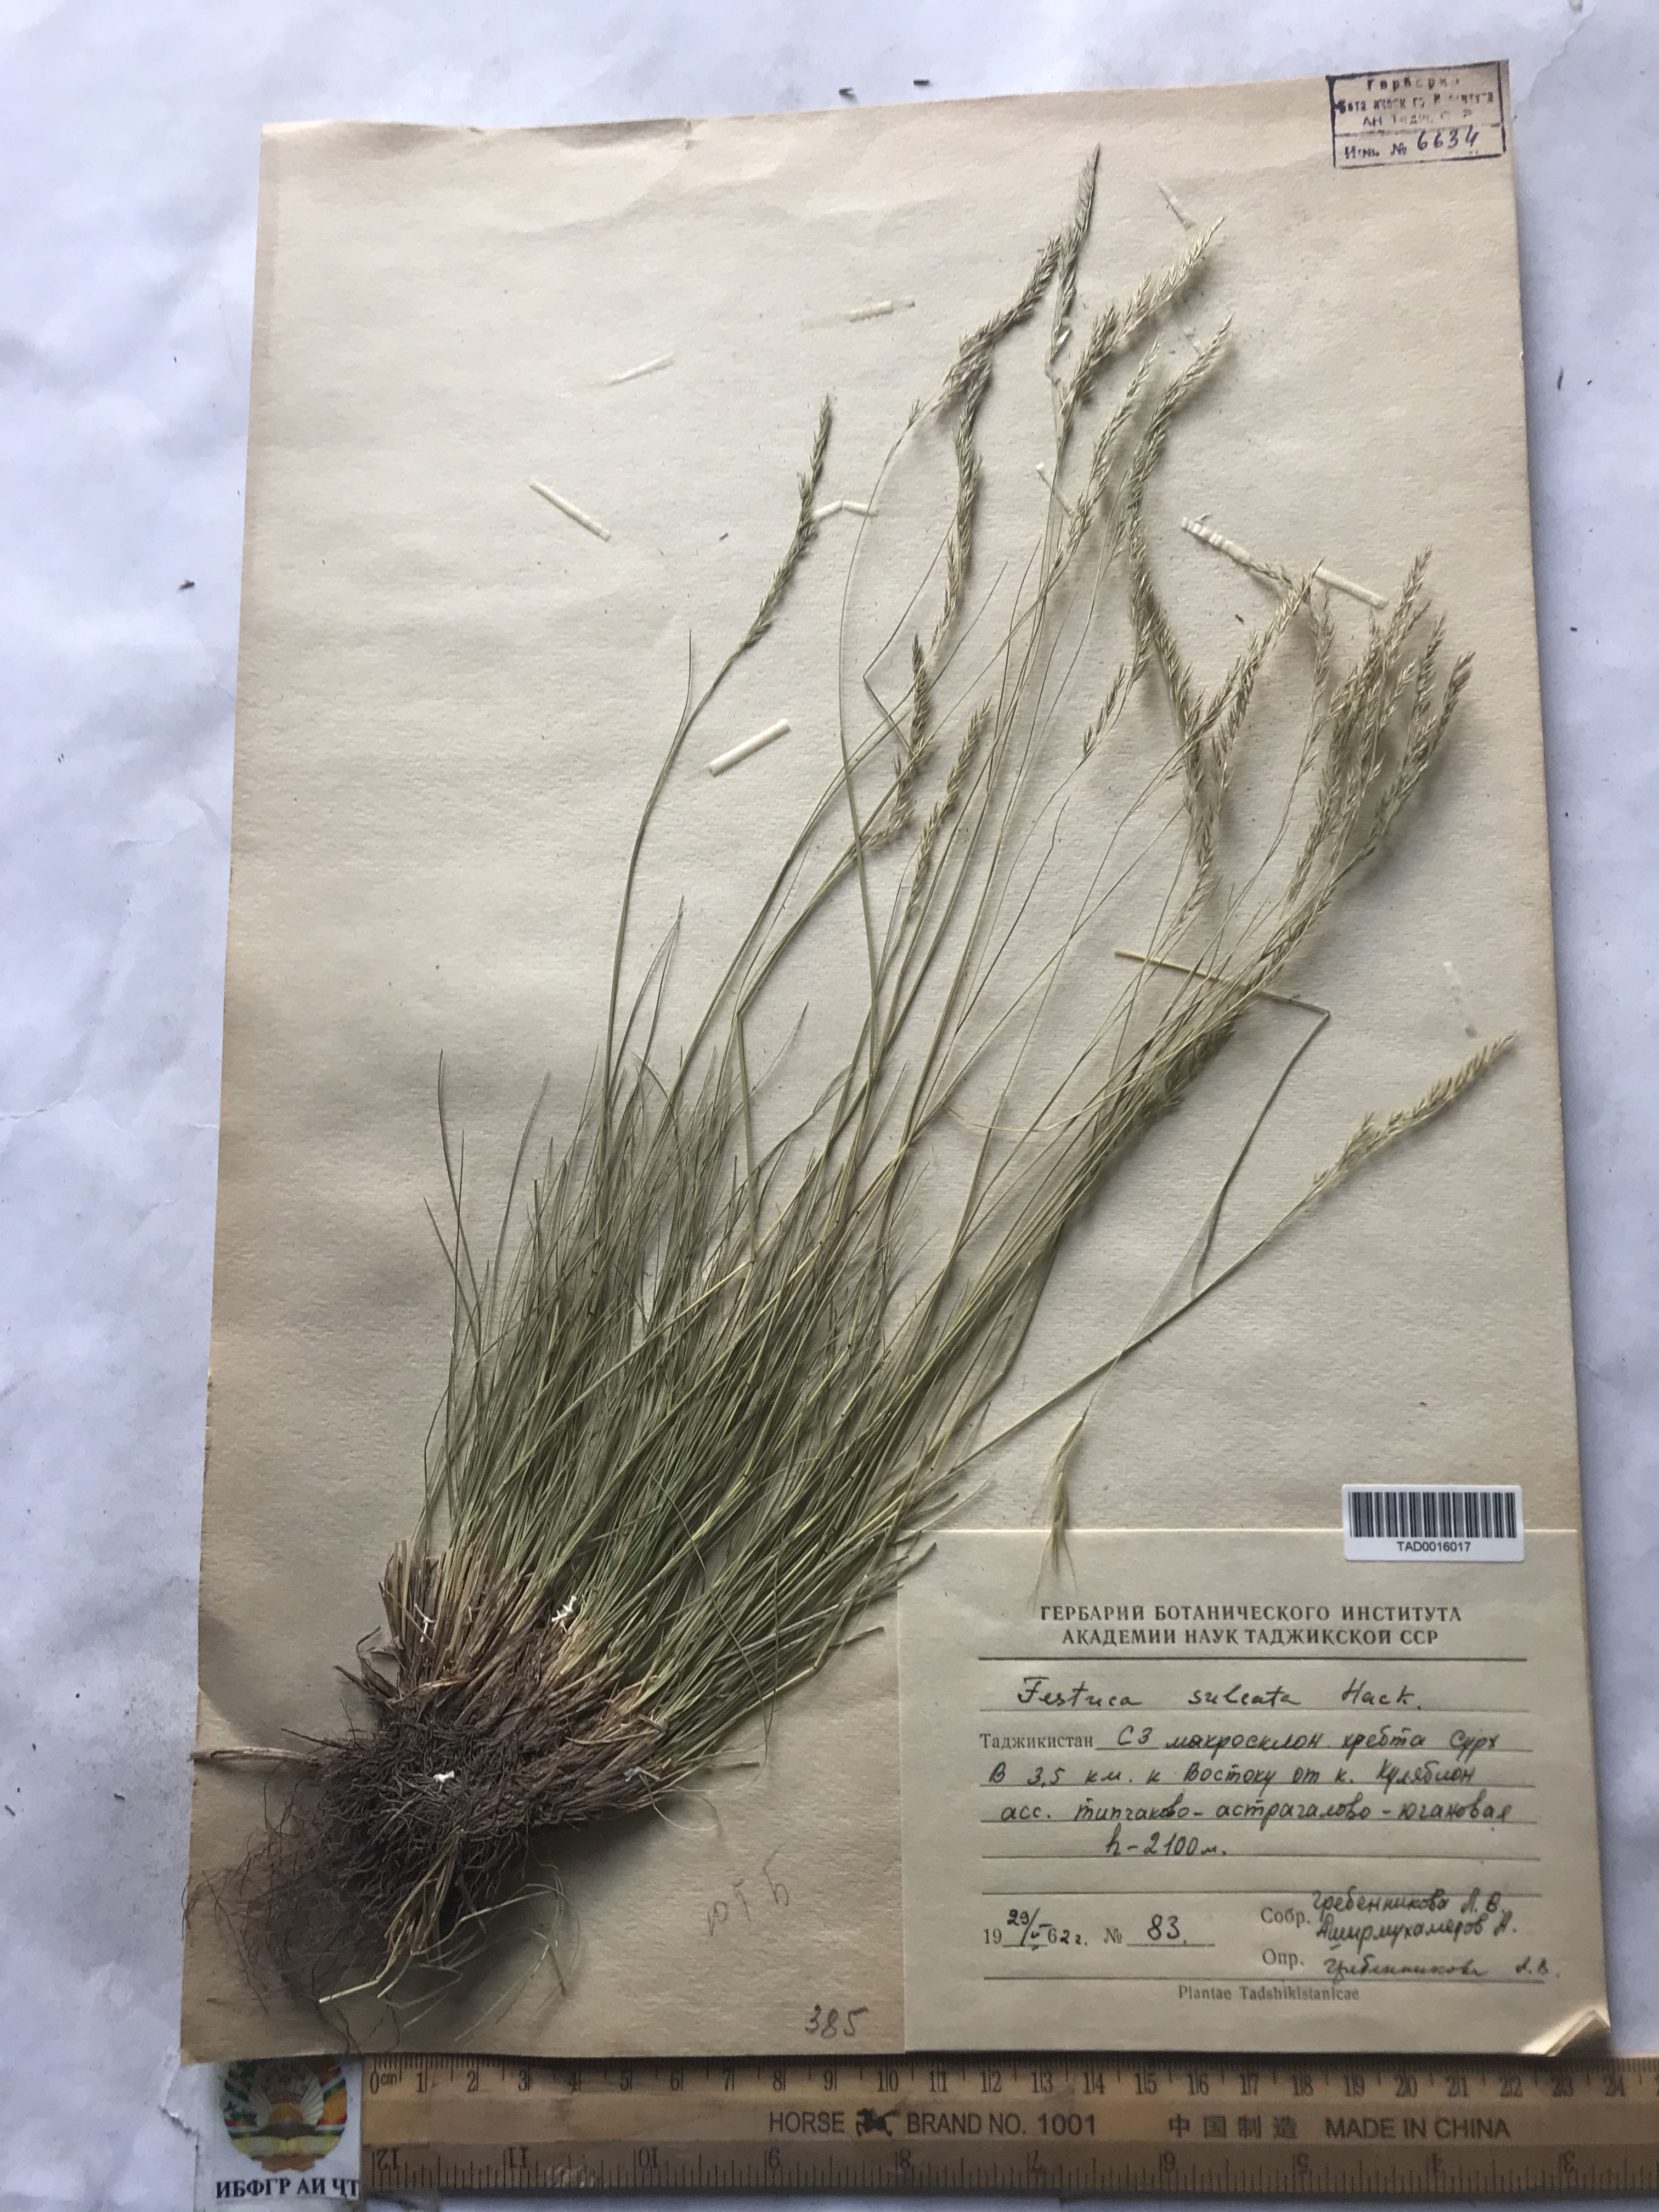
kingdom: Plantae
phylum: Tracheophyta
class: Liliopsida
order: Poales
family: Poaceae
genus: Festuca
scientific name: Festuca sulcata
